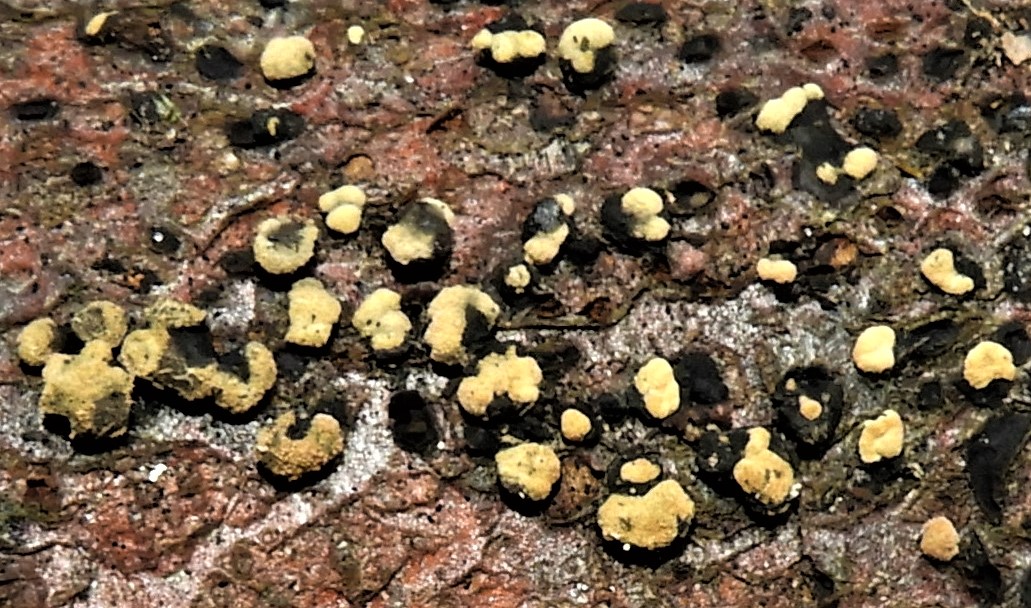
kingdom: Fungi
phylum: Ascomycota
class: Sordariomycetes
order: Xylariales
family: Hypoxylaceae
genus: Hypoxylon
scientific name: Hypoxylon fragiforme
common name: kuljordbær
